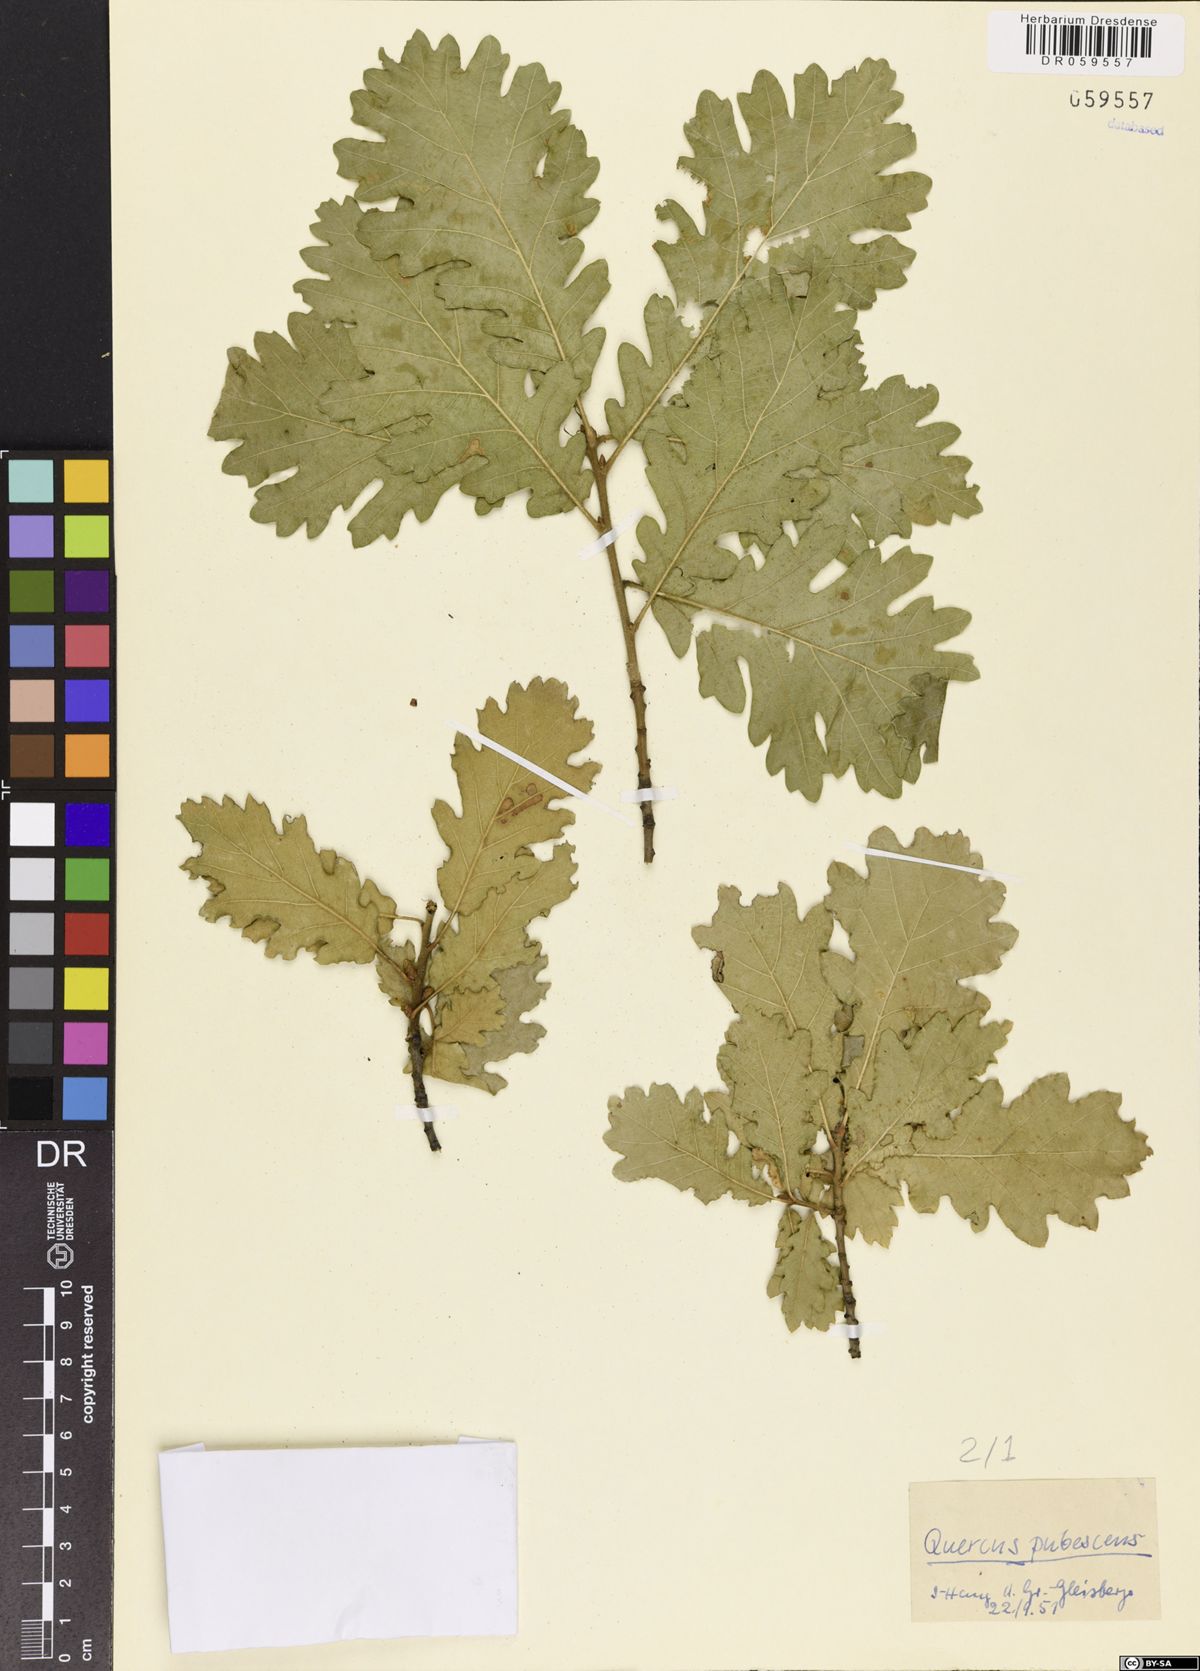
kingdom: Plantae
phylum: Tracheophyta
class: Magnoliopsida
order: Fagales
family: Fagaceae
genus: Quercus
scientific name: Quercus pubescens
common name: Downy oak
